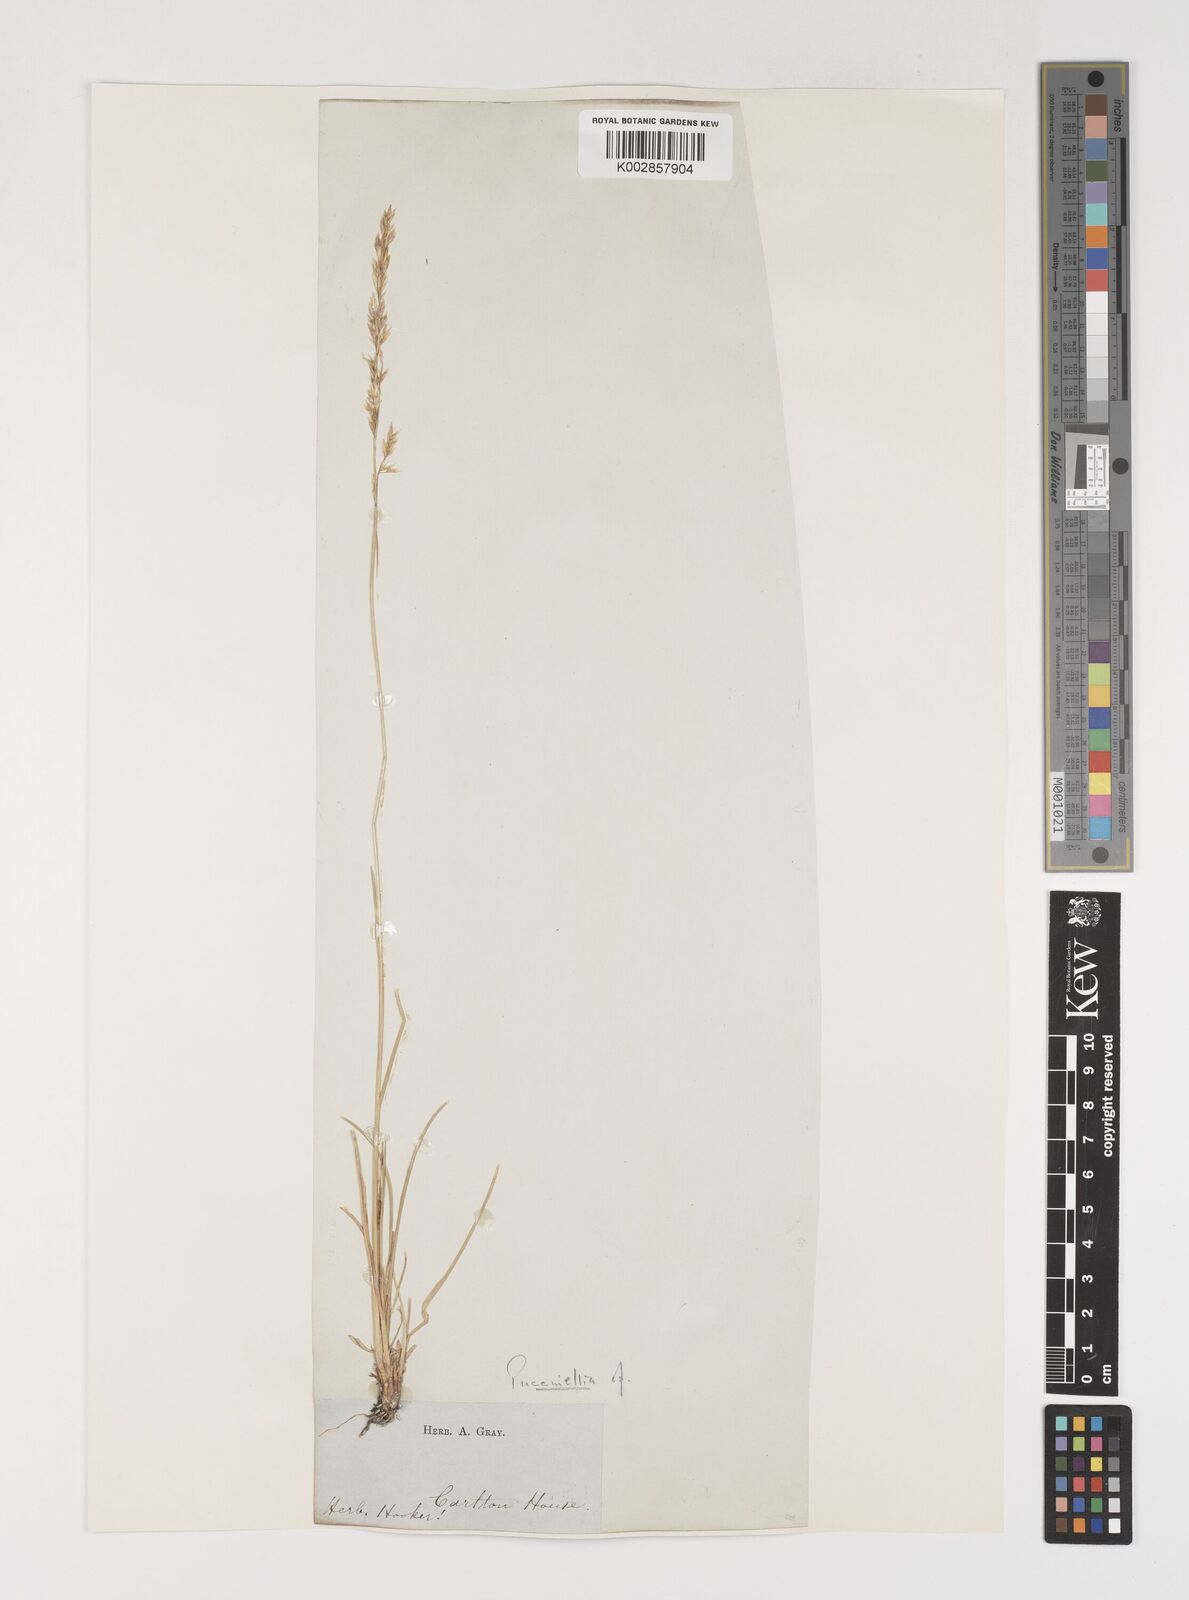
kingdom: Plantae
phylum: Tracheophyta
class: Liliopsida
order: Poales
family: Poaceae
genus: Puccinellia
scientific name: Puccinellia
